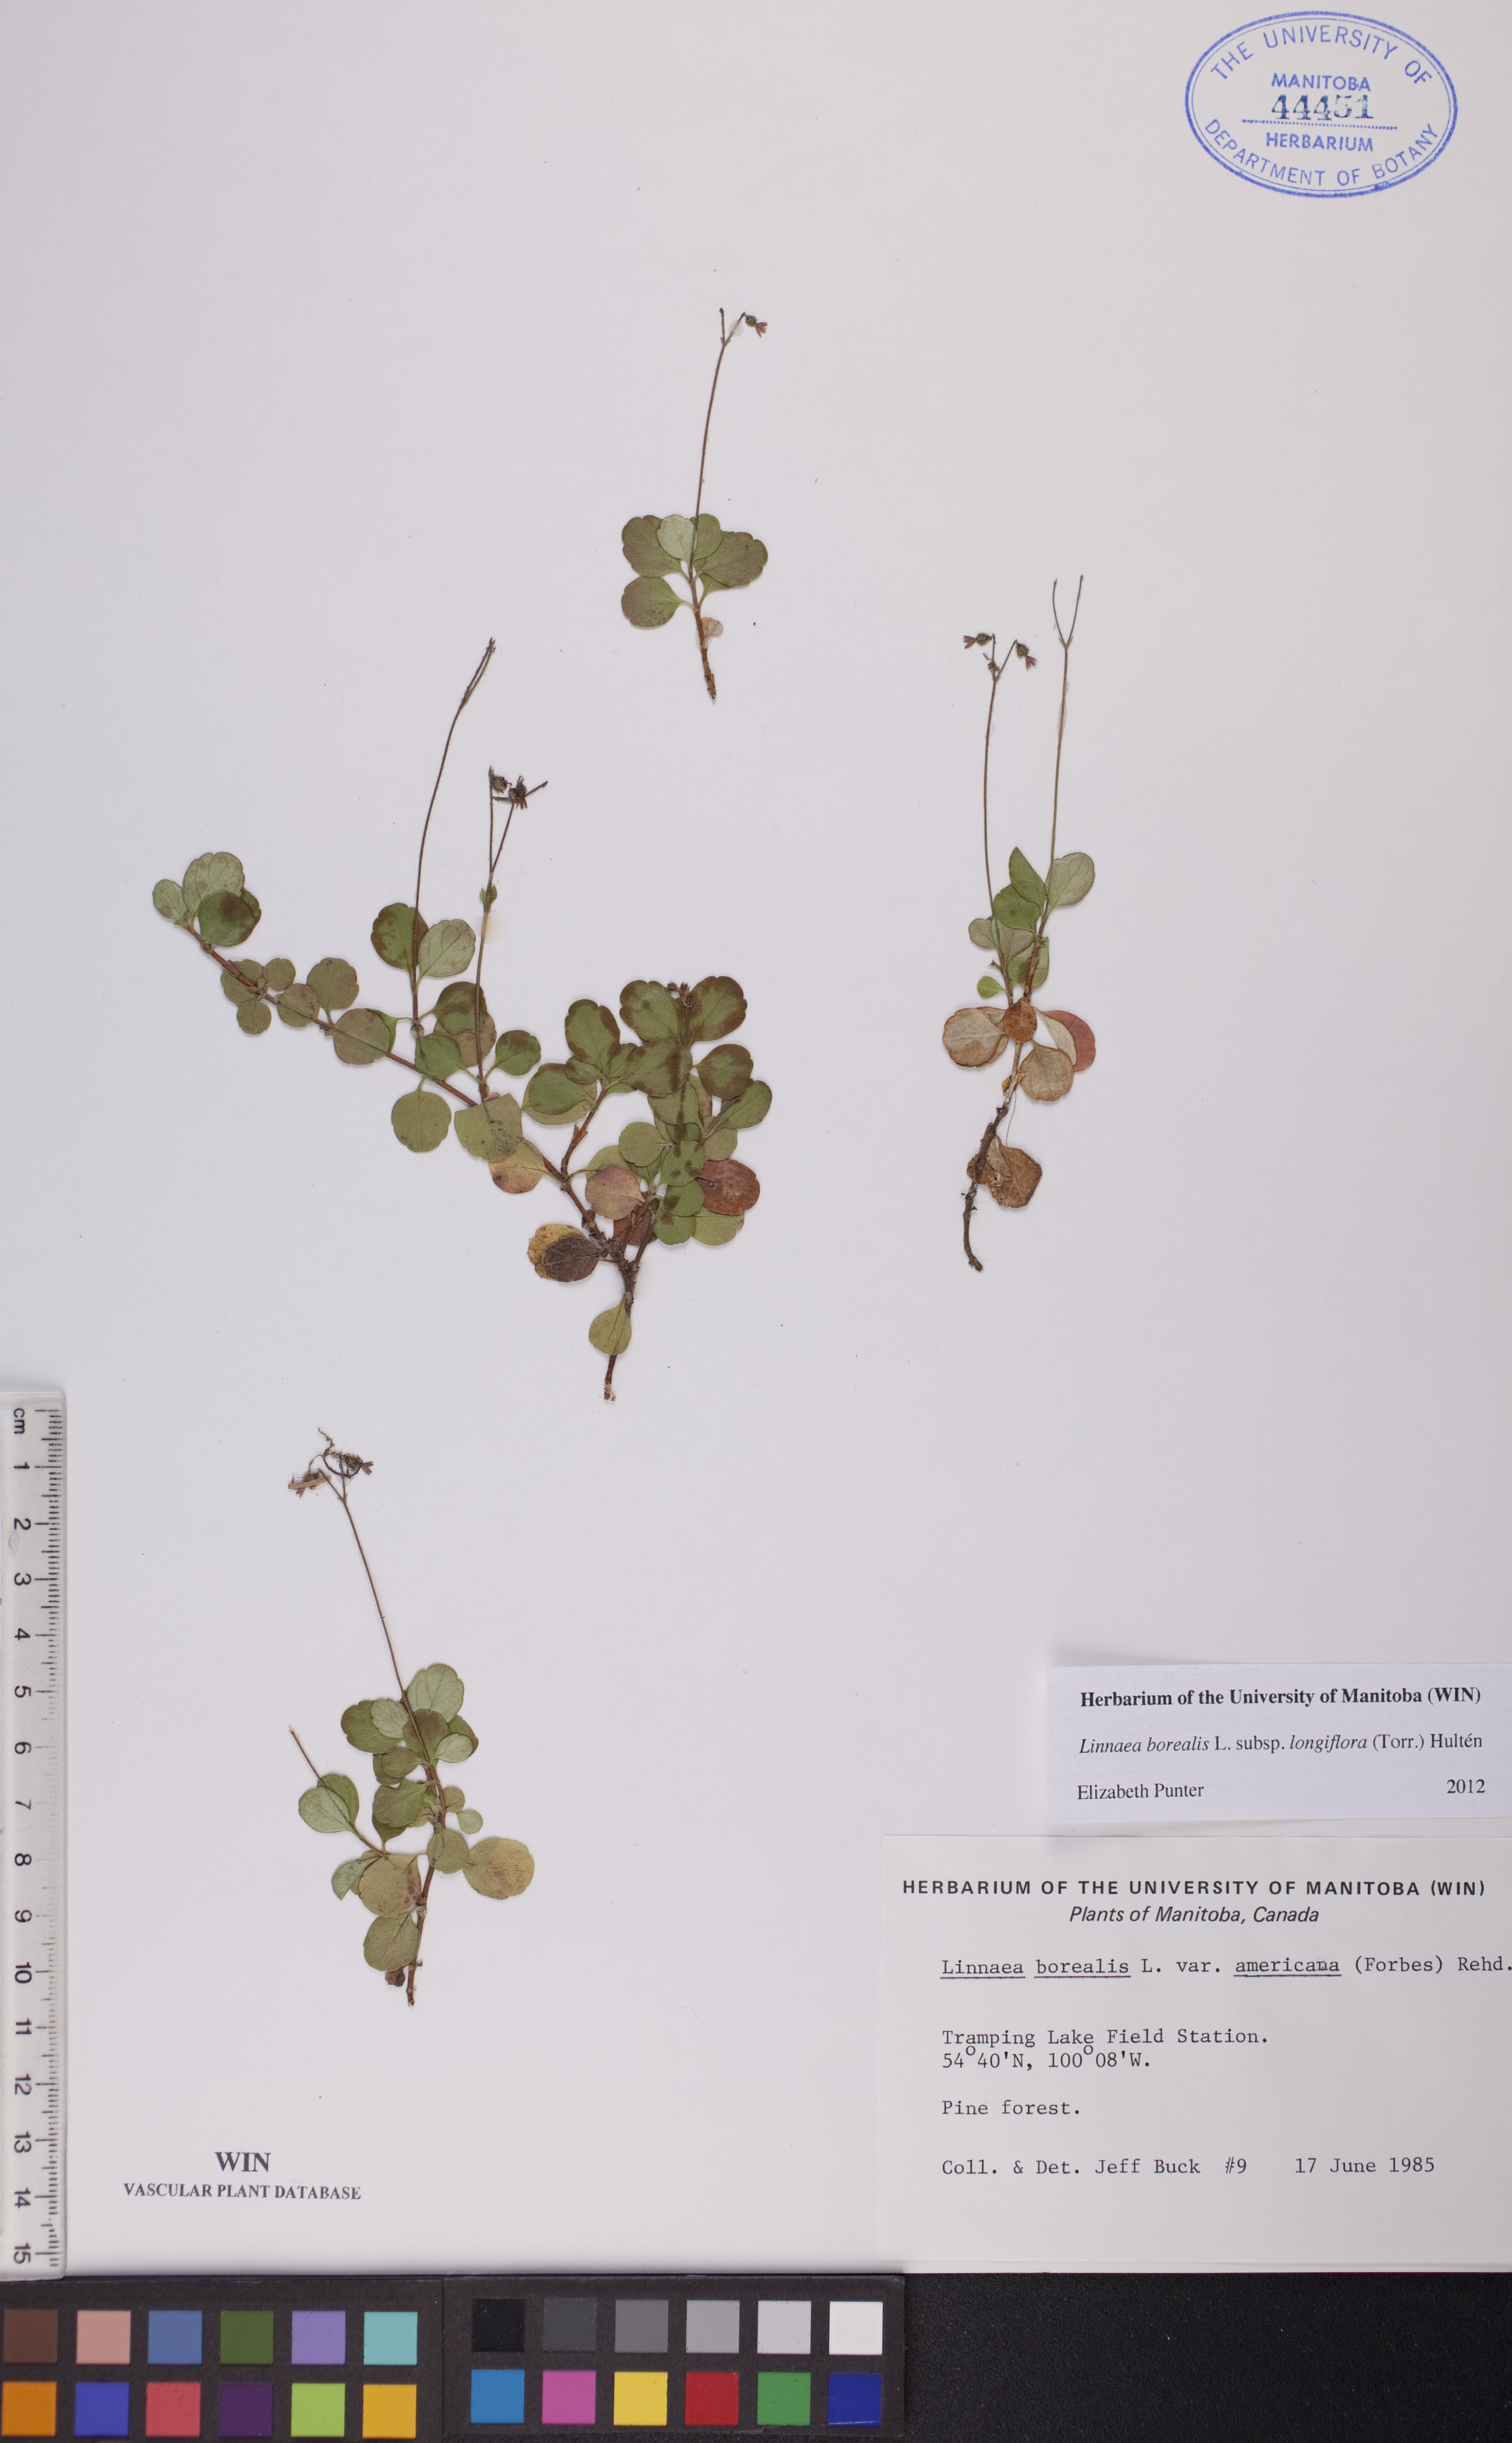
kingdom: Plantae
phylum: Tracheophyta
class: Magnoliopsida
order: Dipsacales
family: Caprifoliaceae
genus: Linnaea
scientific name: Linnaea borealis
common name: Twinflower
